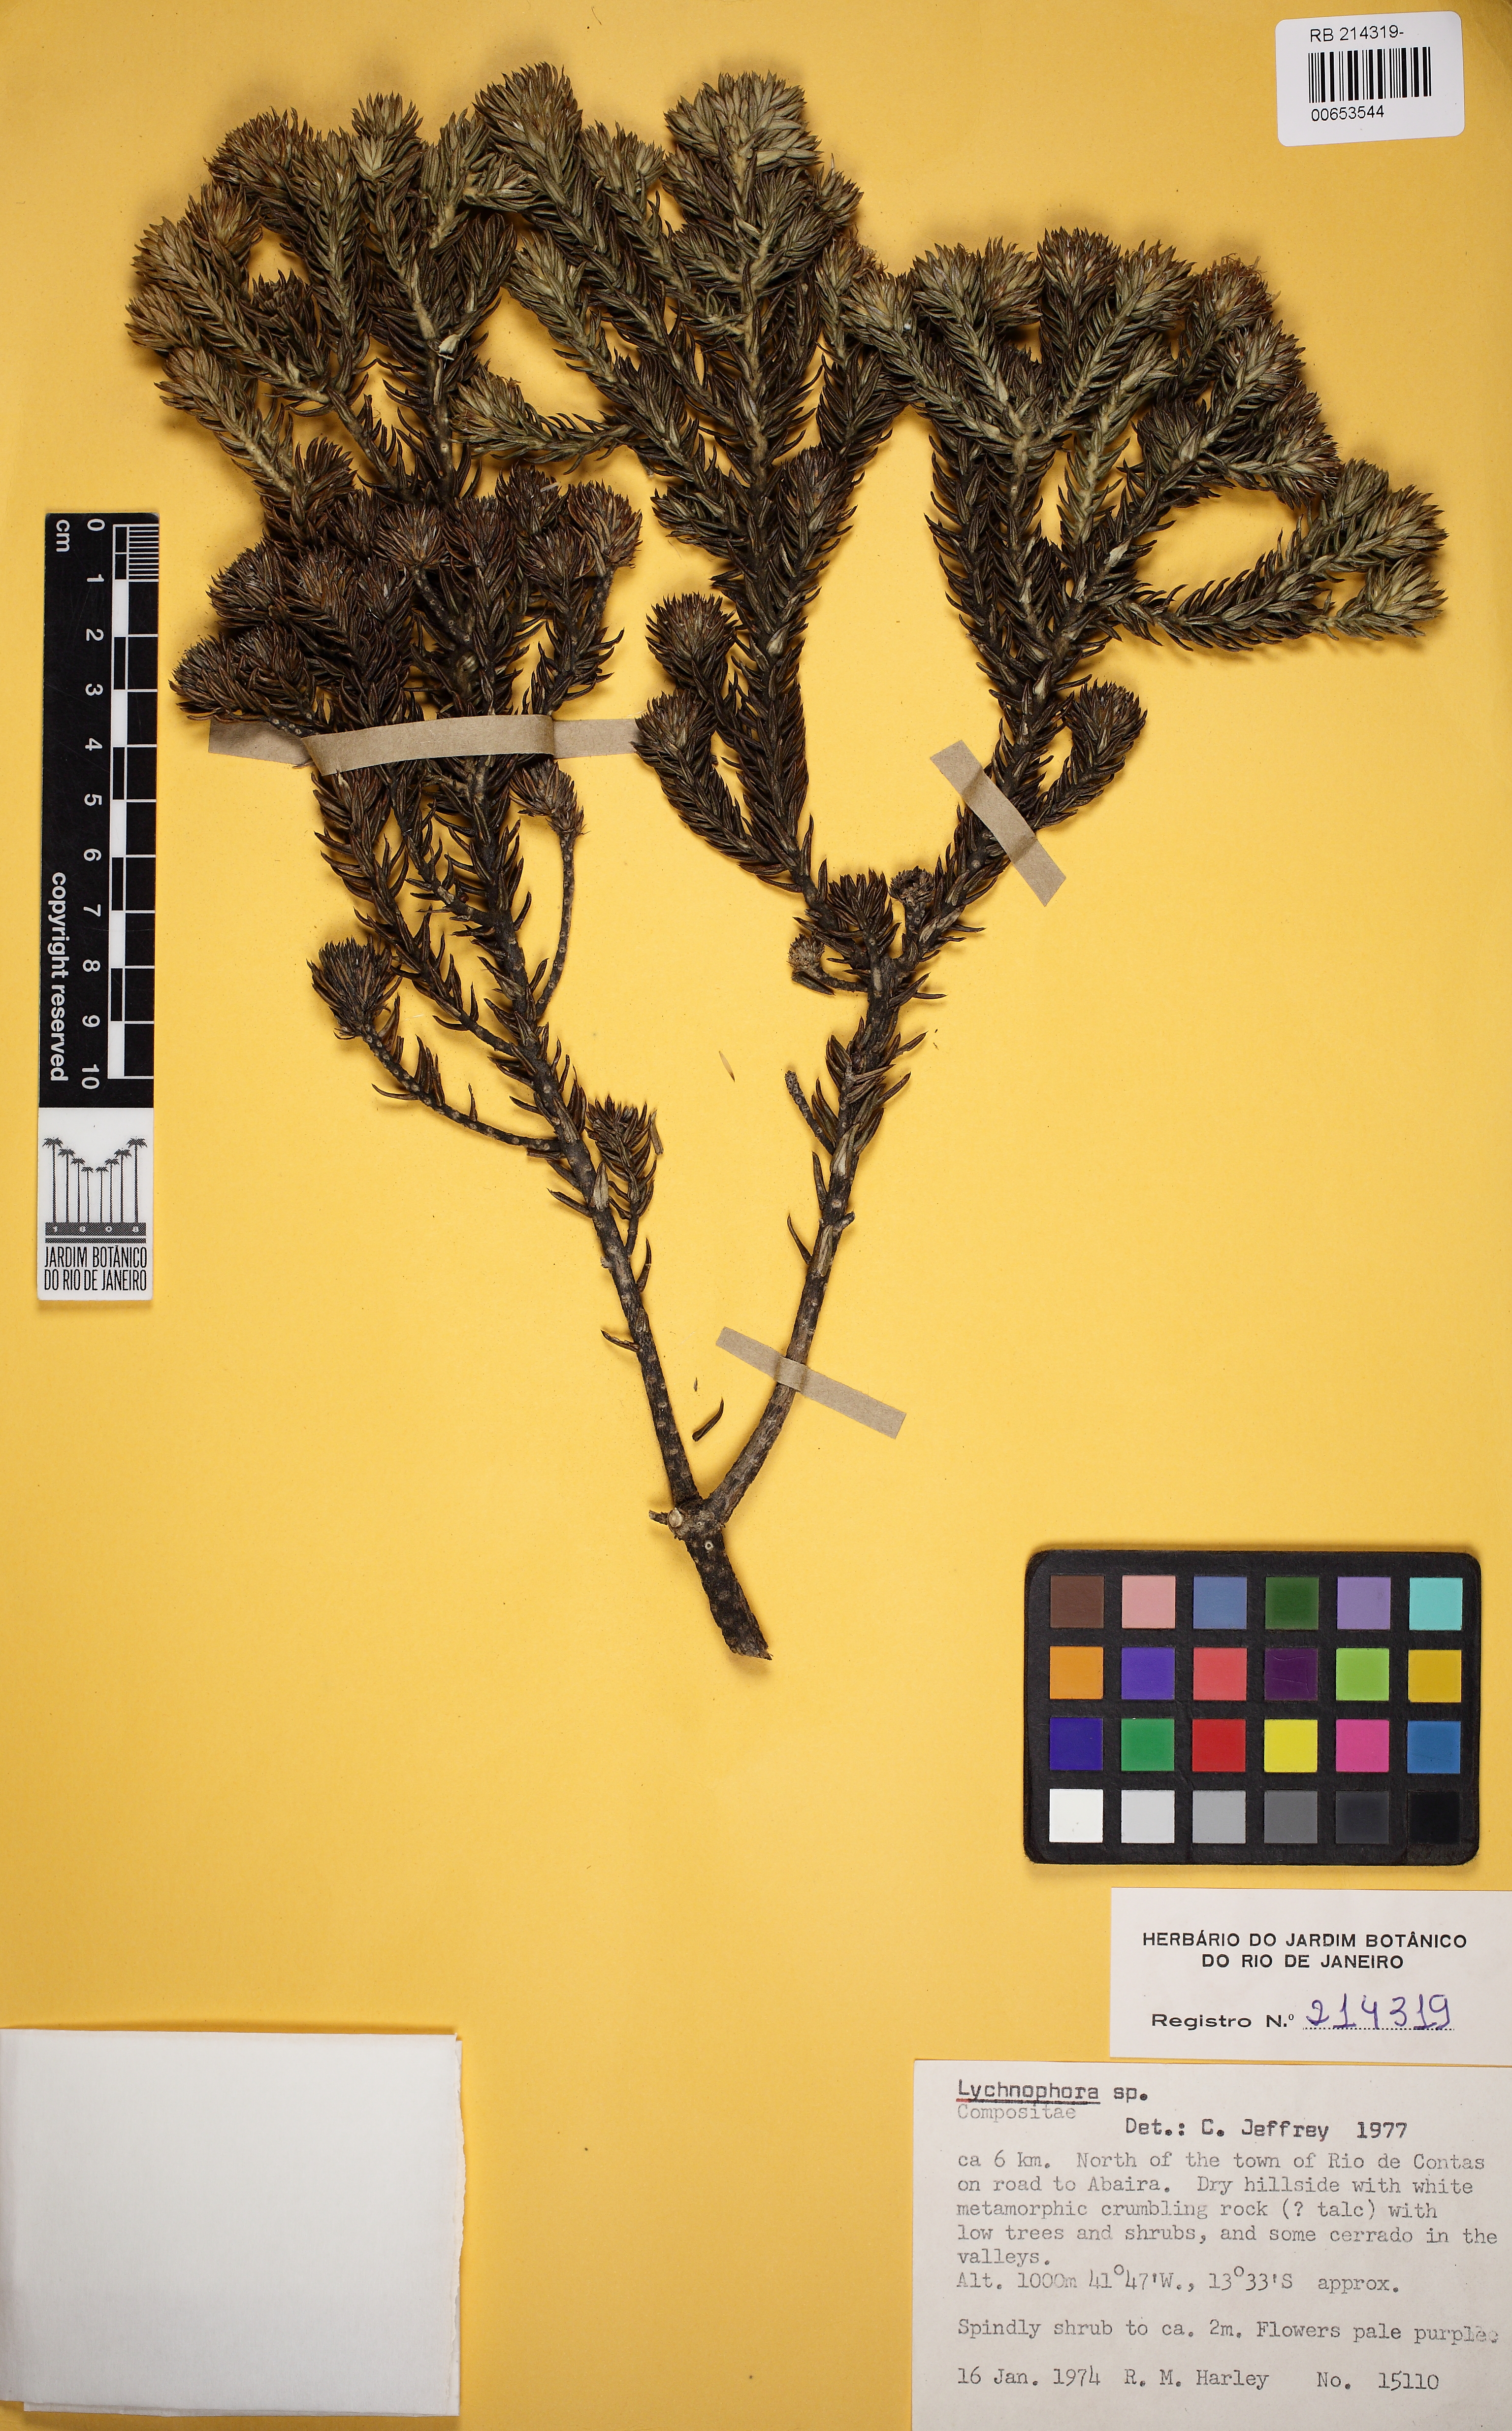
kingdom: Plantae
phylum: Tracheophyta
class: Magnoliopsida
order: Asterales
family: Asteraceae
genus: Lychnophora
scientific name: Lychnophora granmogolensis
